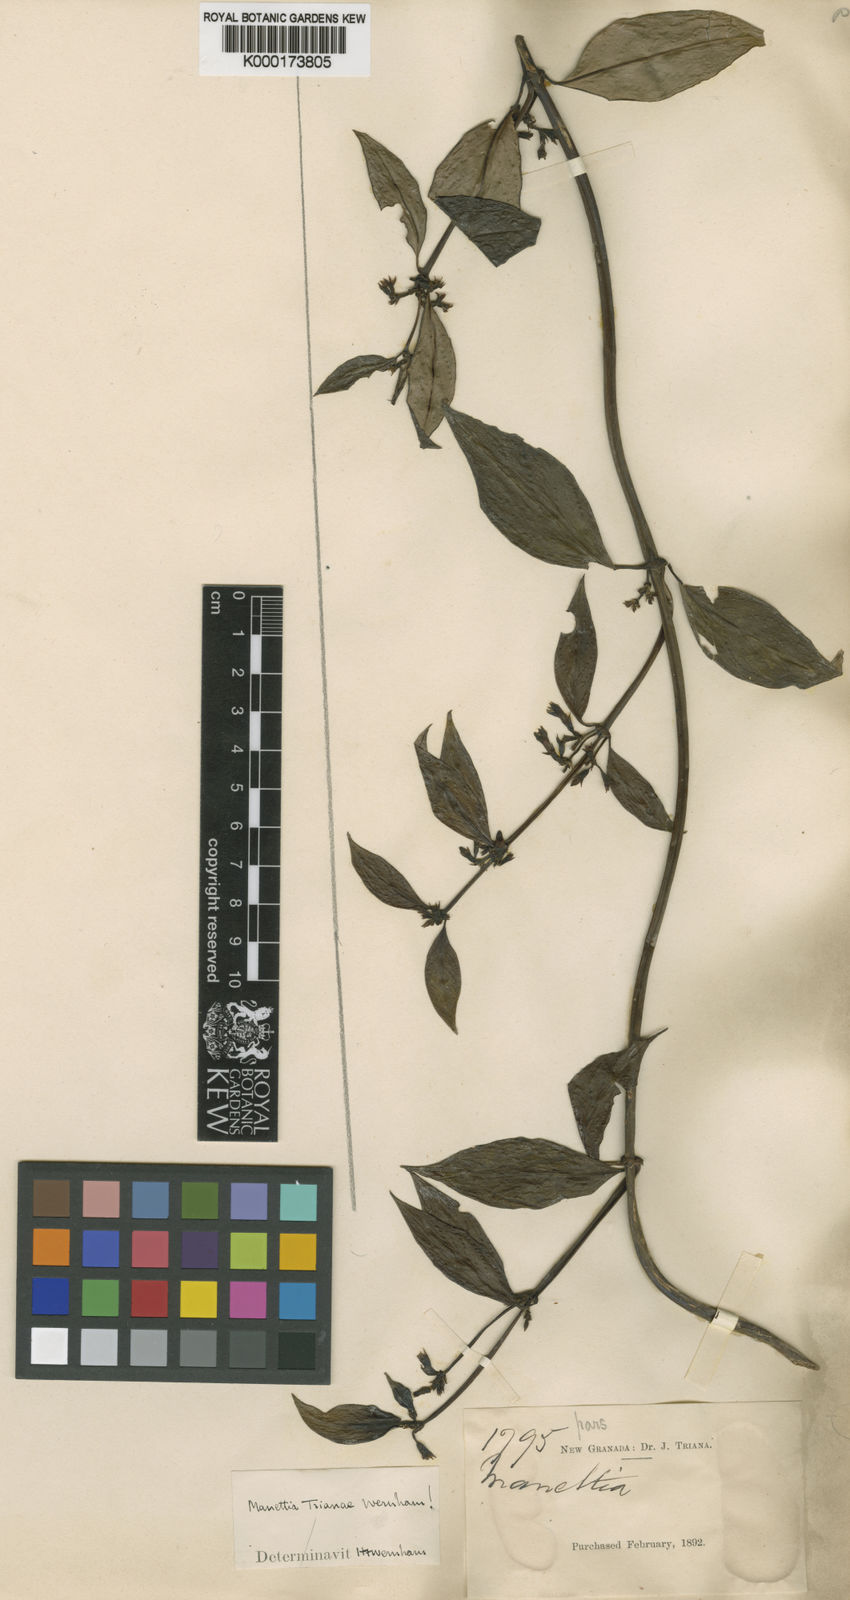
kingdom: Plantae
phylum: Tracheophyta
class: Magnoliopsida
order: Gentianales
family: Rubiaceae
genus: Manettia
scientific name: Manettia trianae
